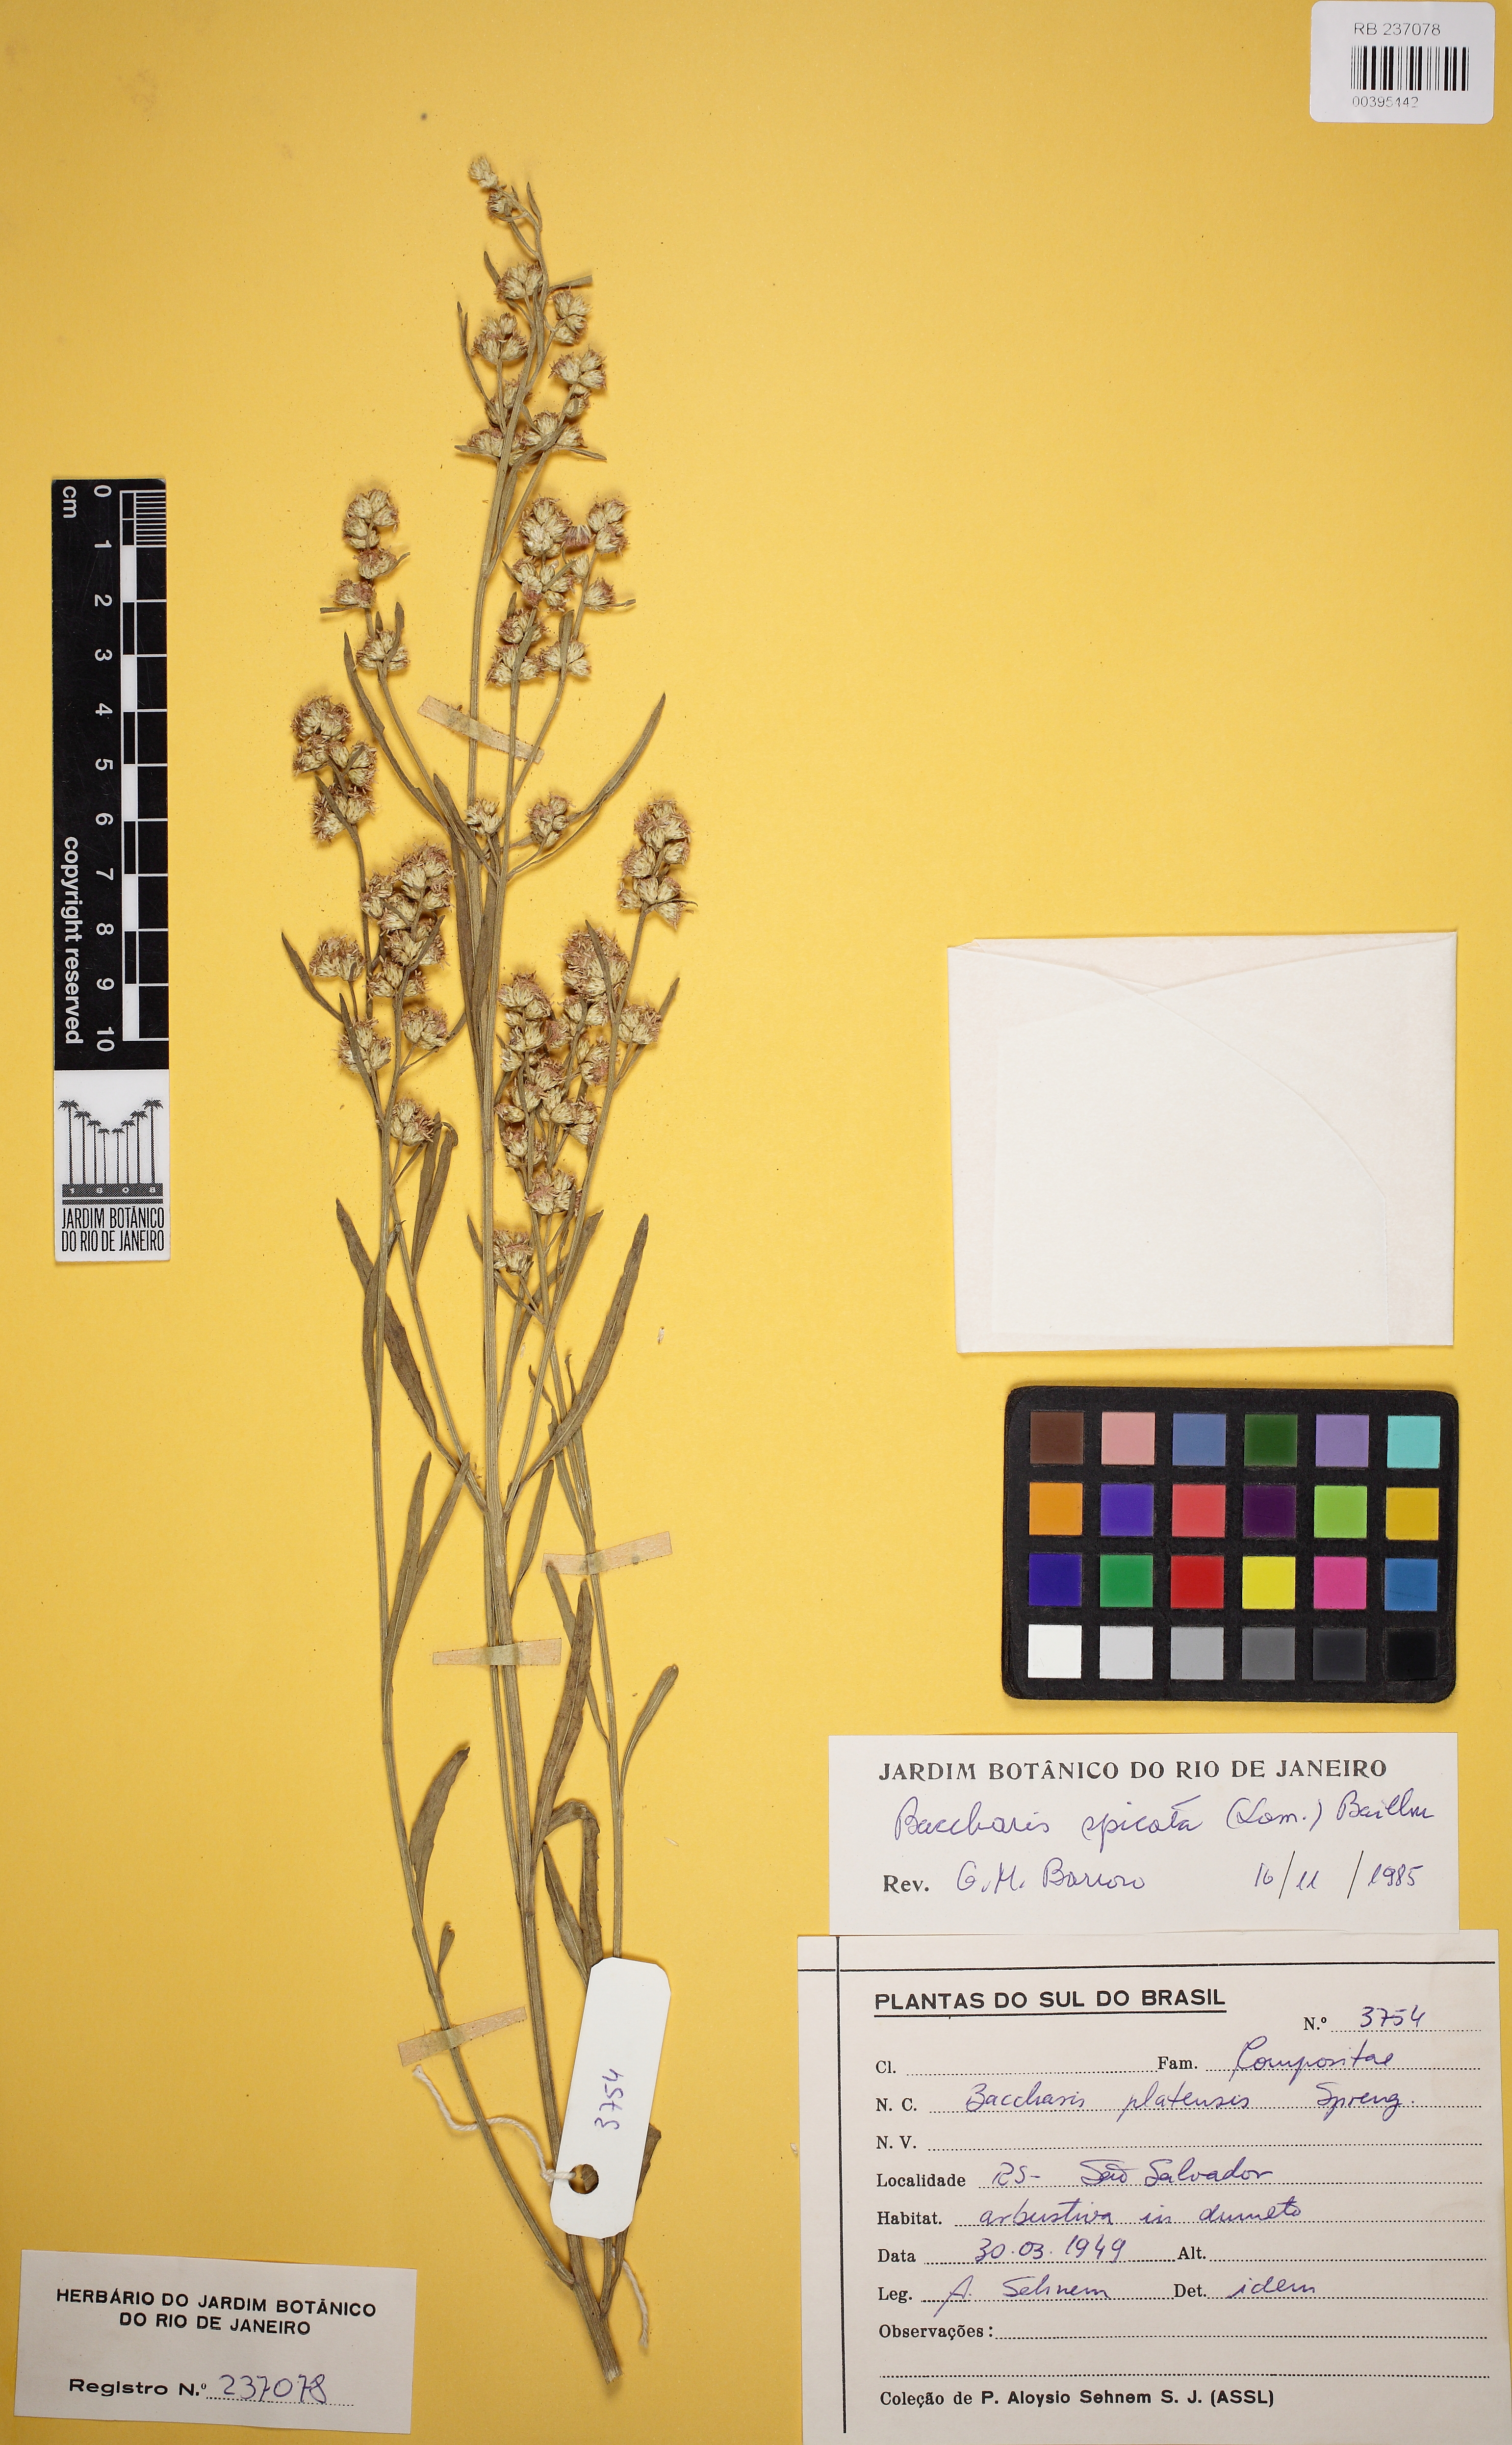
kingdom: Plantae
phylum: Tracheophyta
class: Magnoliopsida
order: Asterales
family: Asteraceae
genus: Baccharis
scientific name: Baccharis spicata
